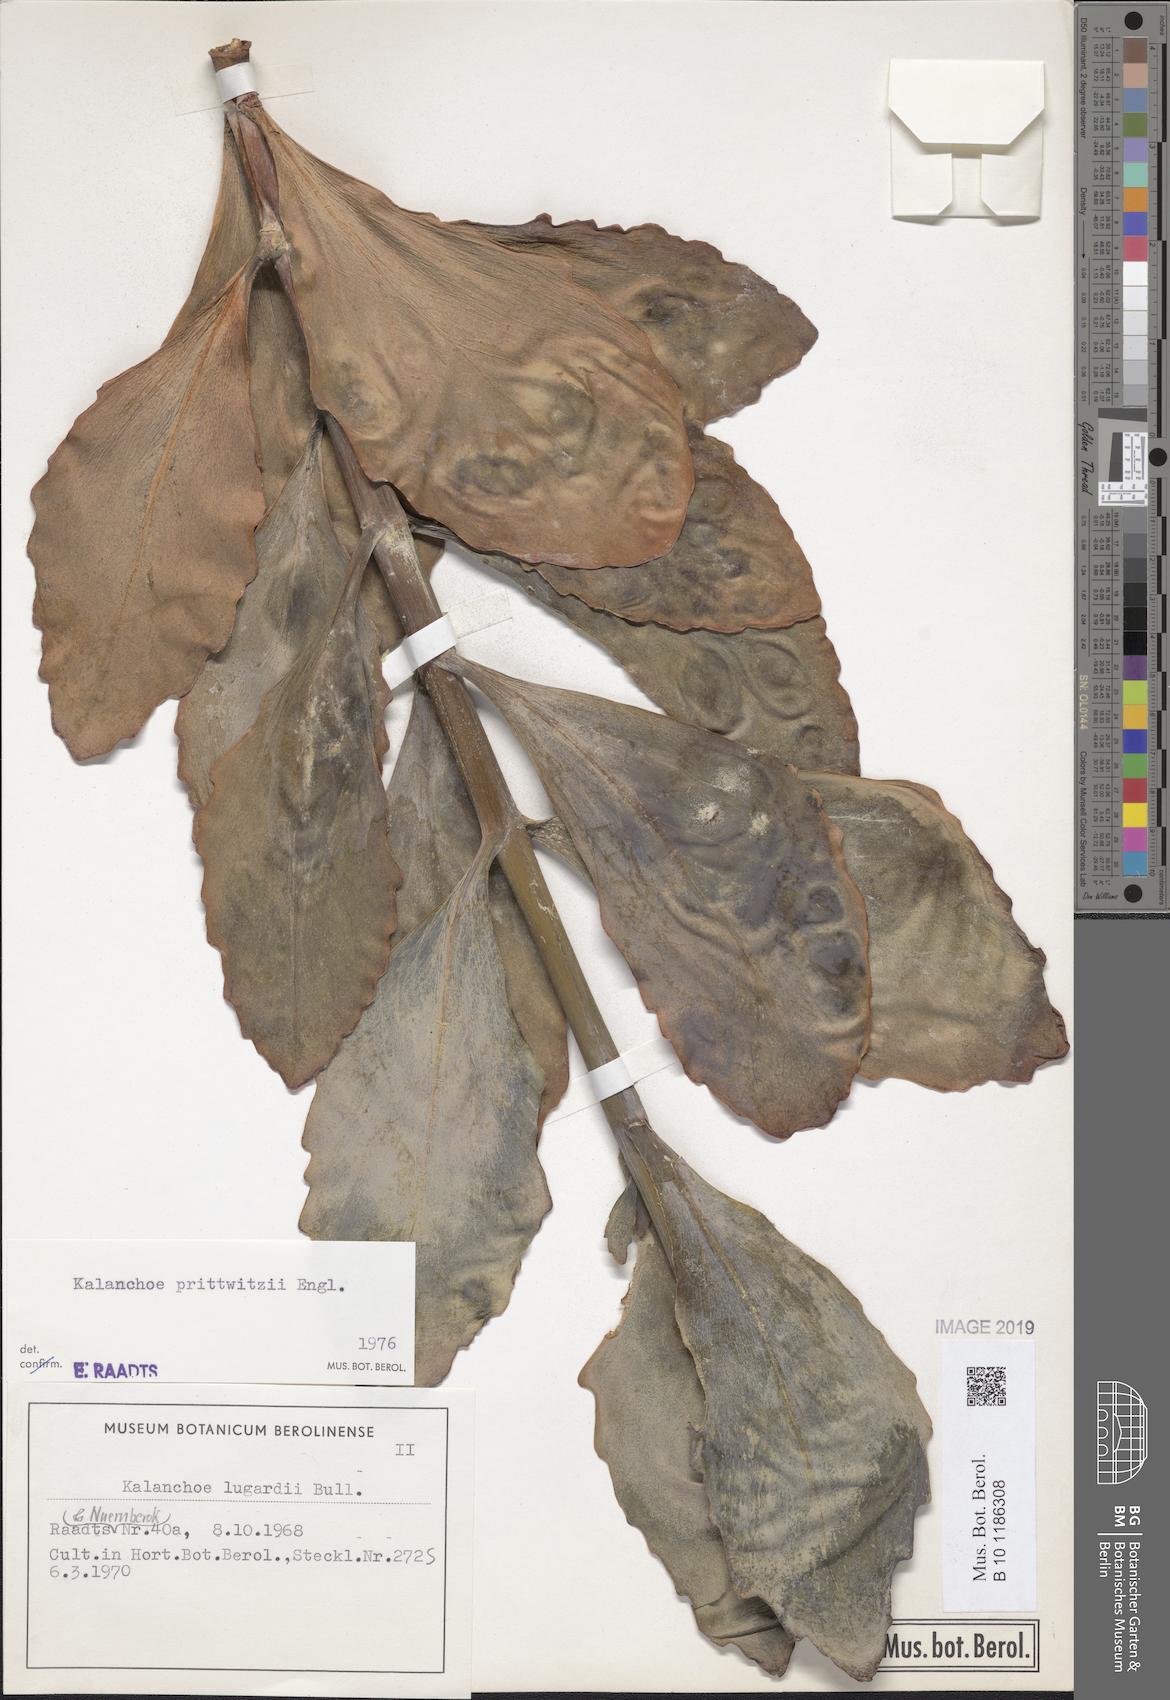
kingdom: Plantae
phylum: Tracheophyta
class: Magnoliopsida
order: Saxifragales
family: Crassulaceae
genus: Kalanchoe
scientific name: Kalanchoe prittwitzii
